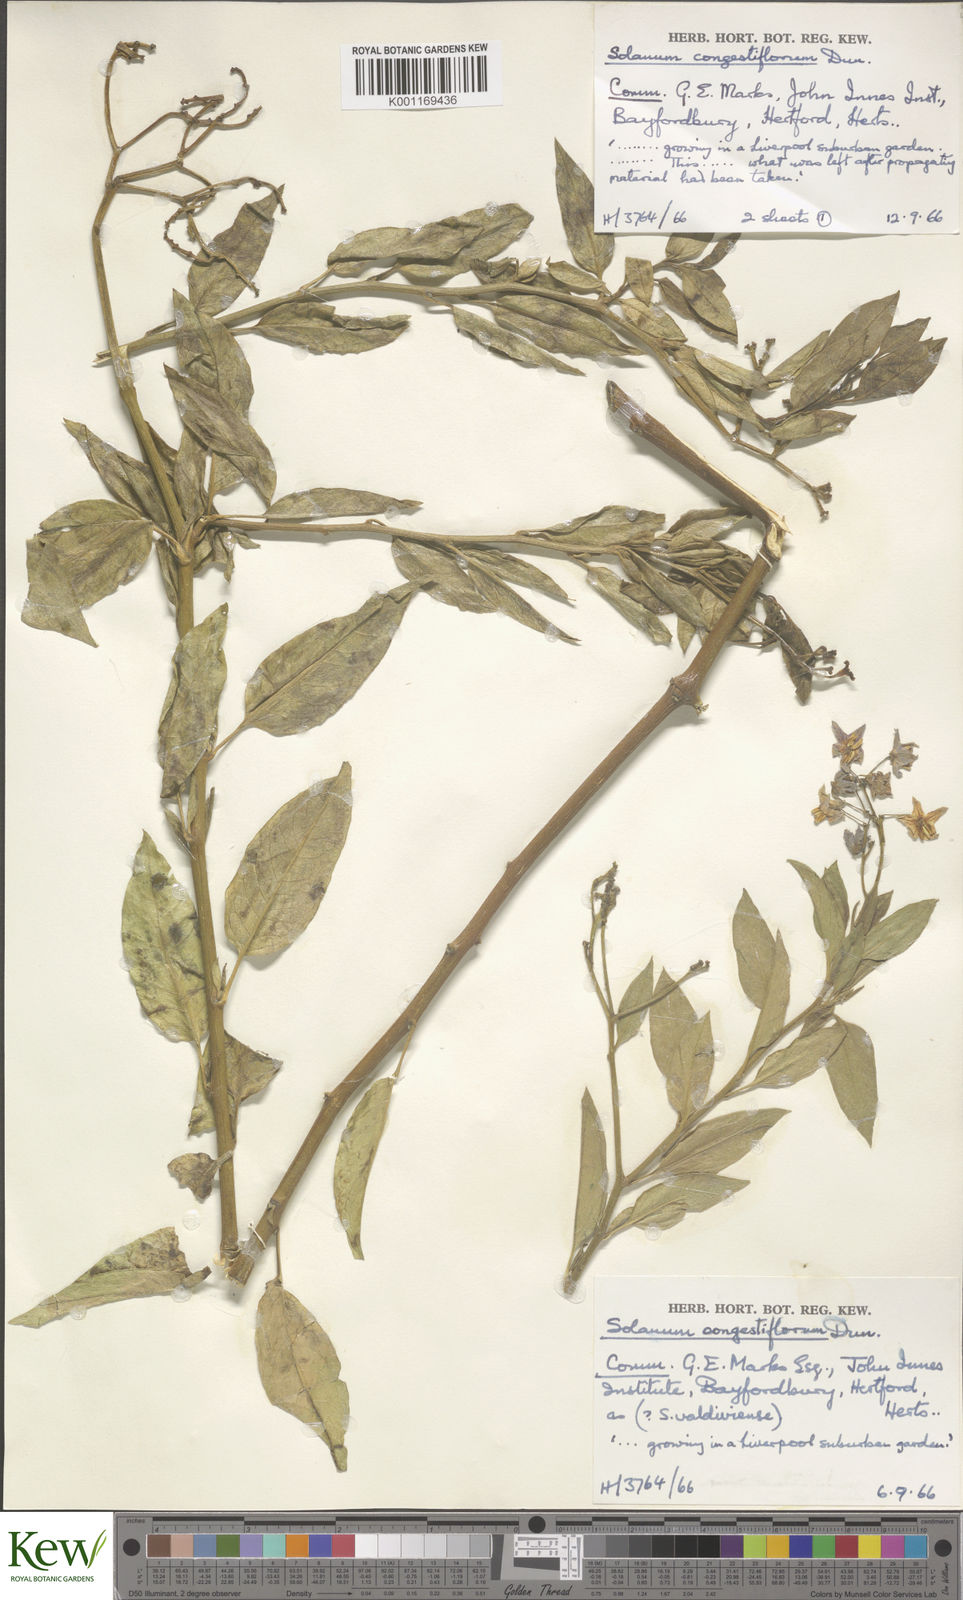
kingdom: Plantae
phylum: Tracheophyta
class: Magnoliopsida
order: Solanales
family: Solanaceae
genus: Solanum
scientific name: Solanum crispum
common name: Chilean nightshade
